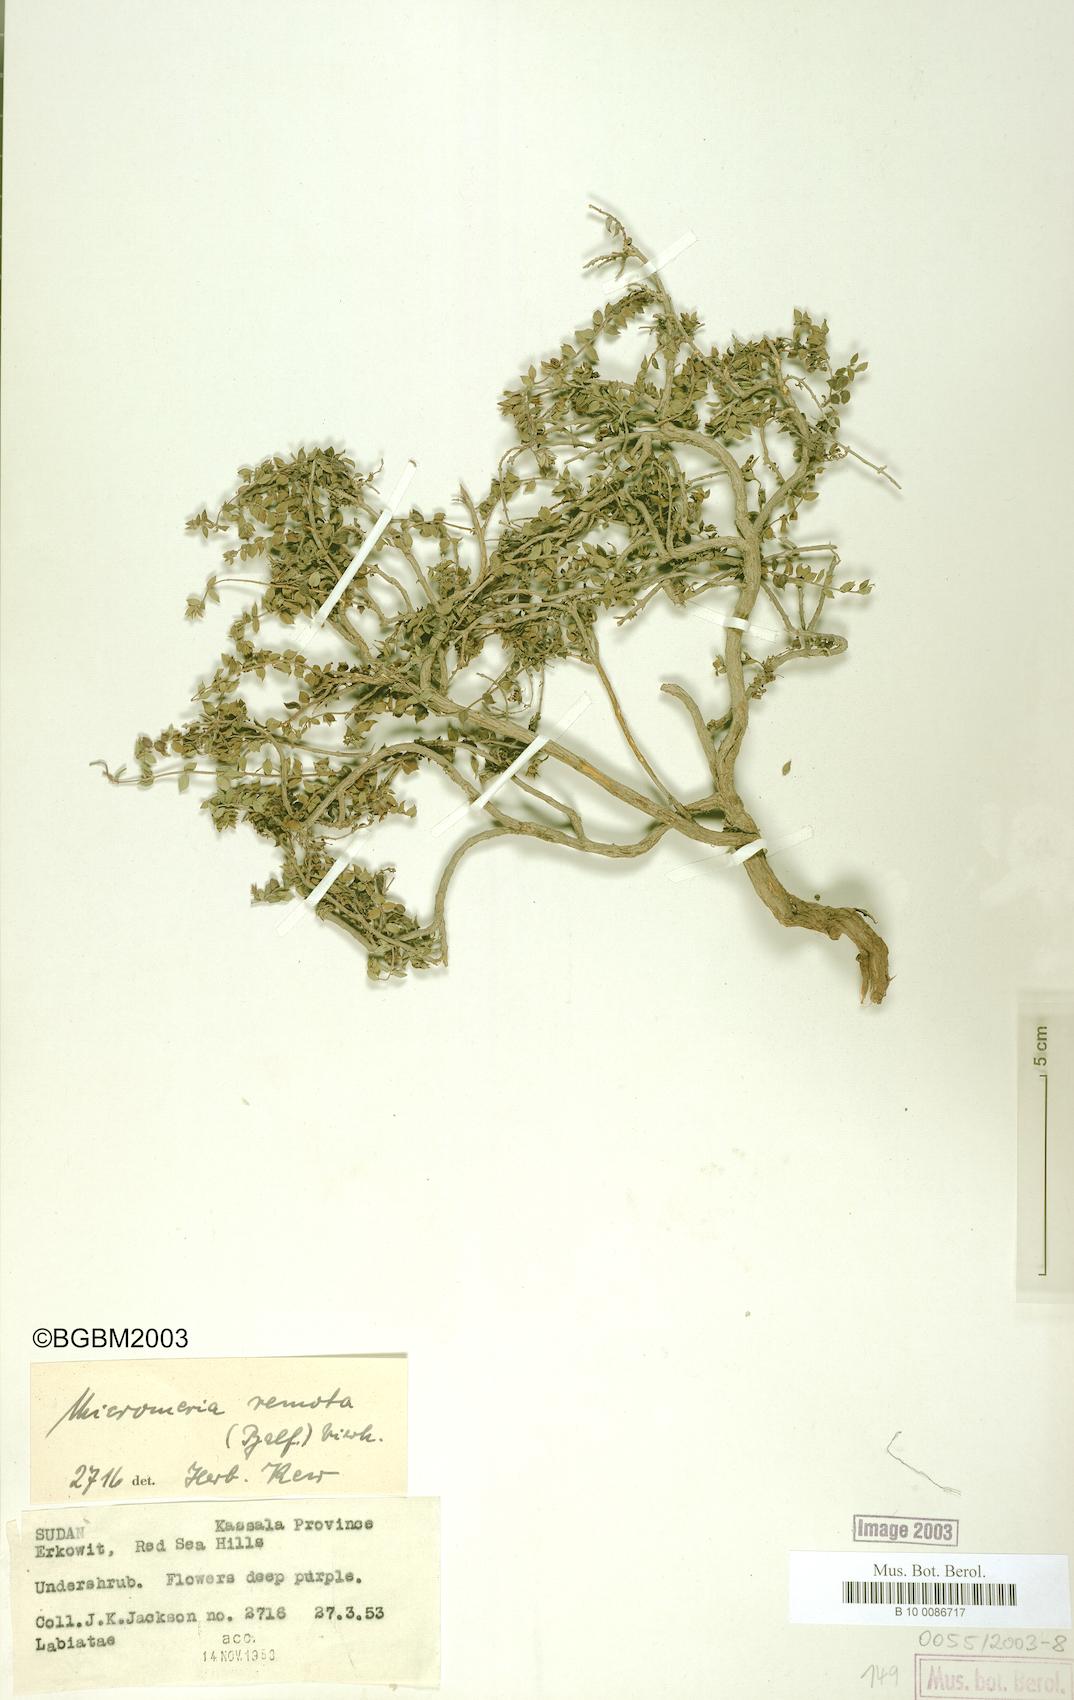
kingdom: Plantae
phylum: Tracheophyta
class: Magnoliopsida
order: Lamiales
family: Lamiaceae
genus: Micromeria
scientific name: Micromeria remota
